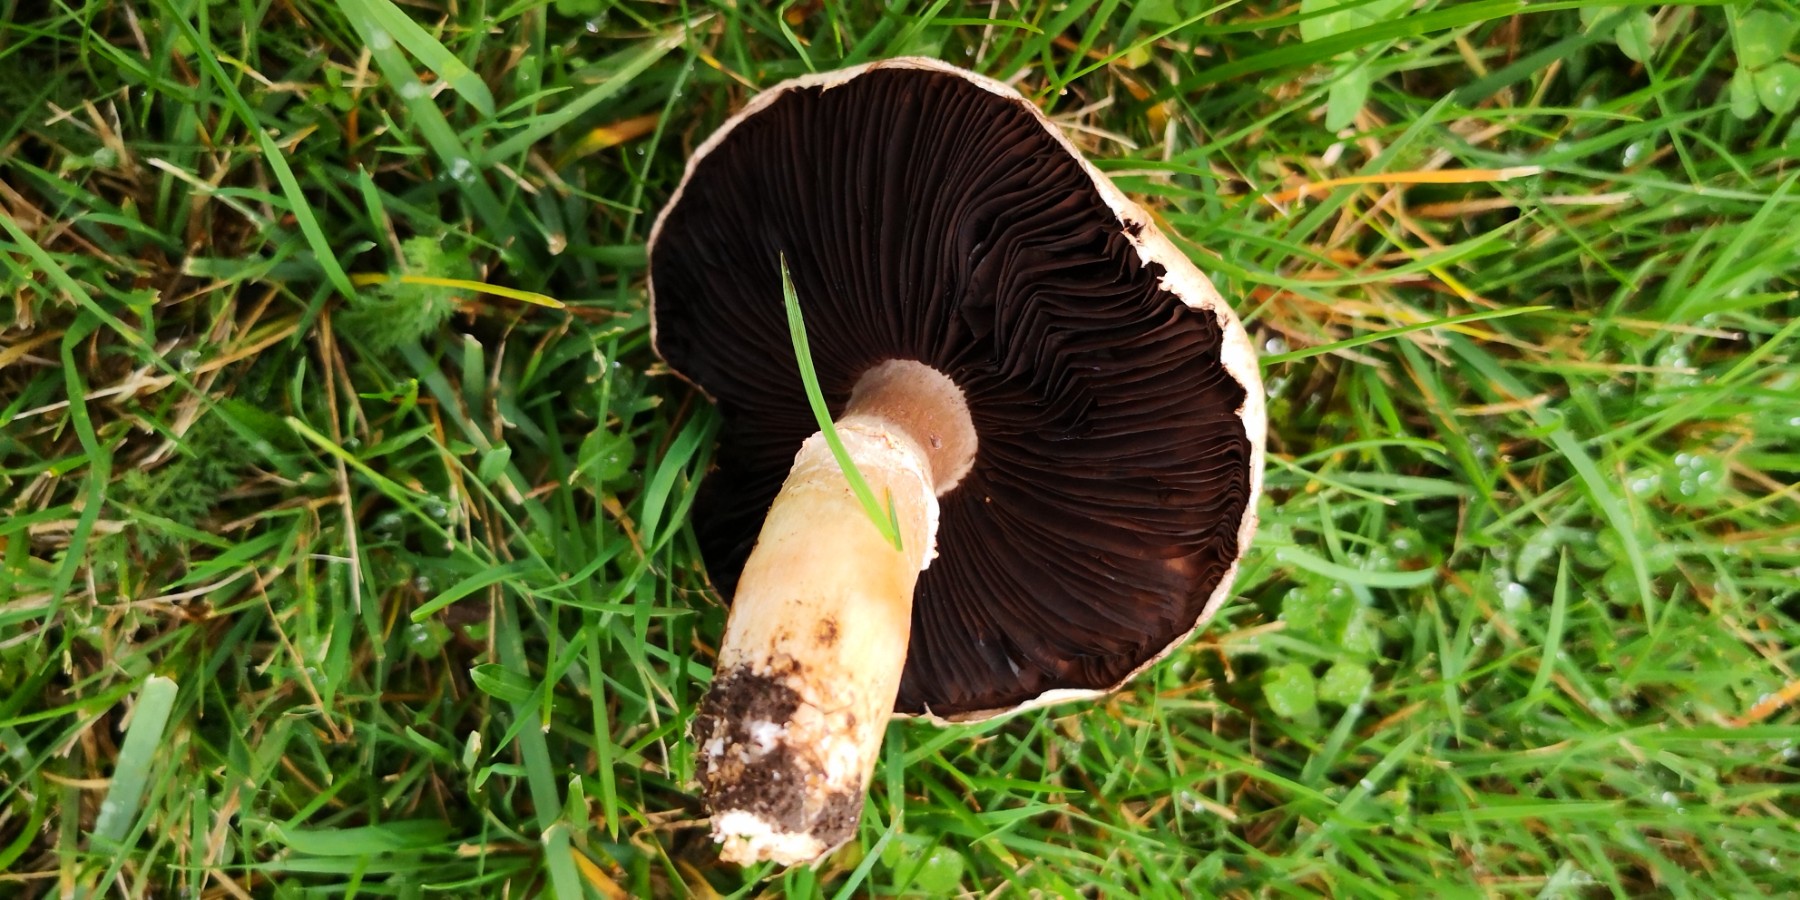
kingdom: Fungi
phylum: Basidiomycota
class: Agaricomycetes
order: Agaricales
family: Agaricaceae
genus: Agaricus
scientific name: Agaricus
